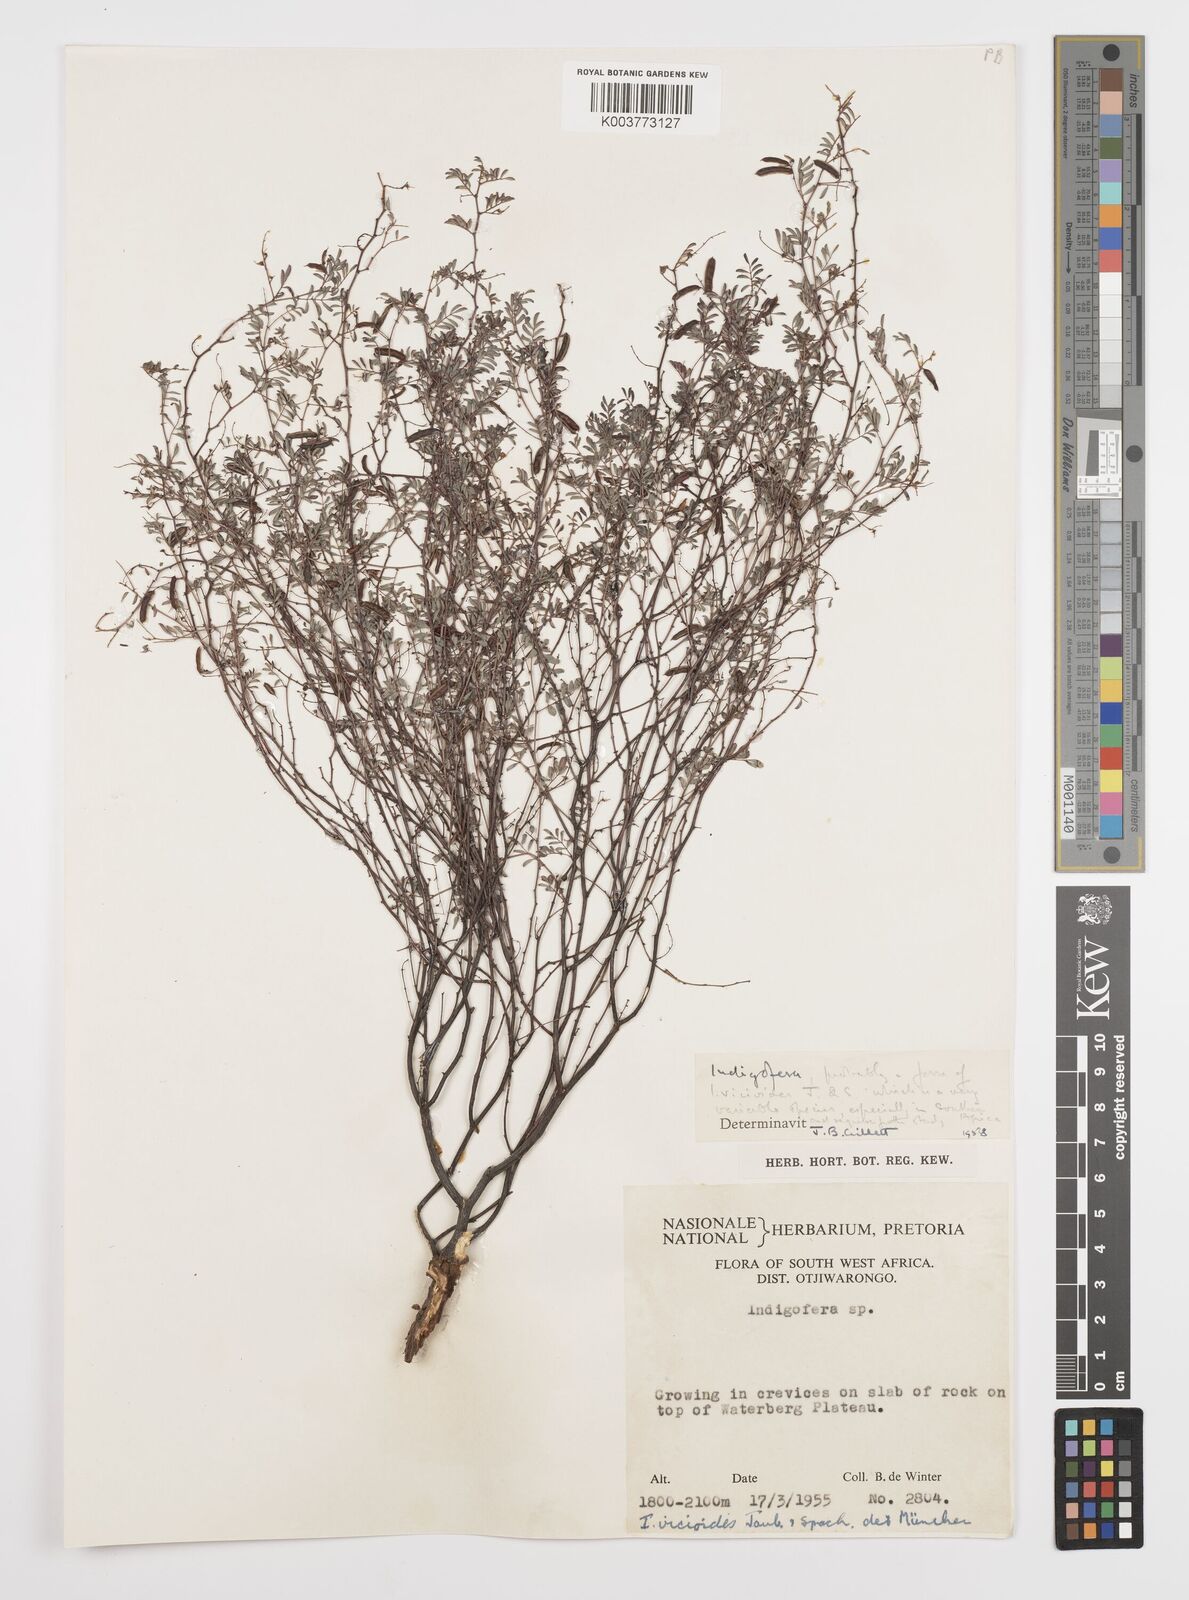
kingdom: Plantae
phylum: Tracheophyta
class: Magnoliopsida
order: Fabales
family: Fabaceae
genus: Indigofera
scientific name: Indigofera
